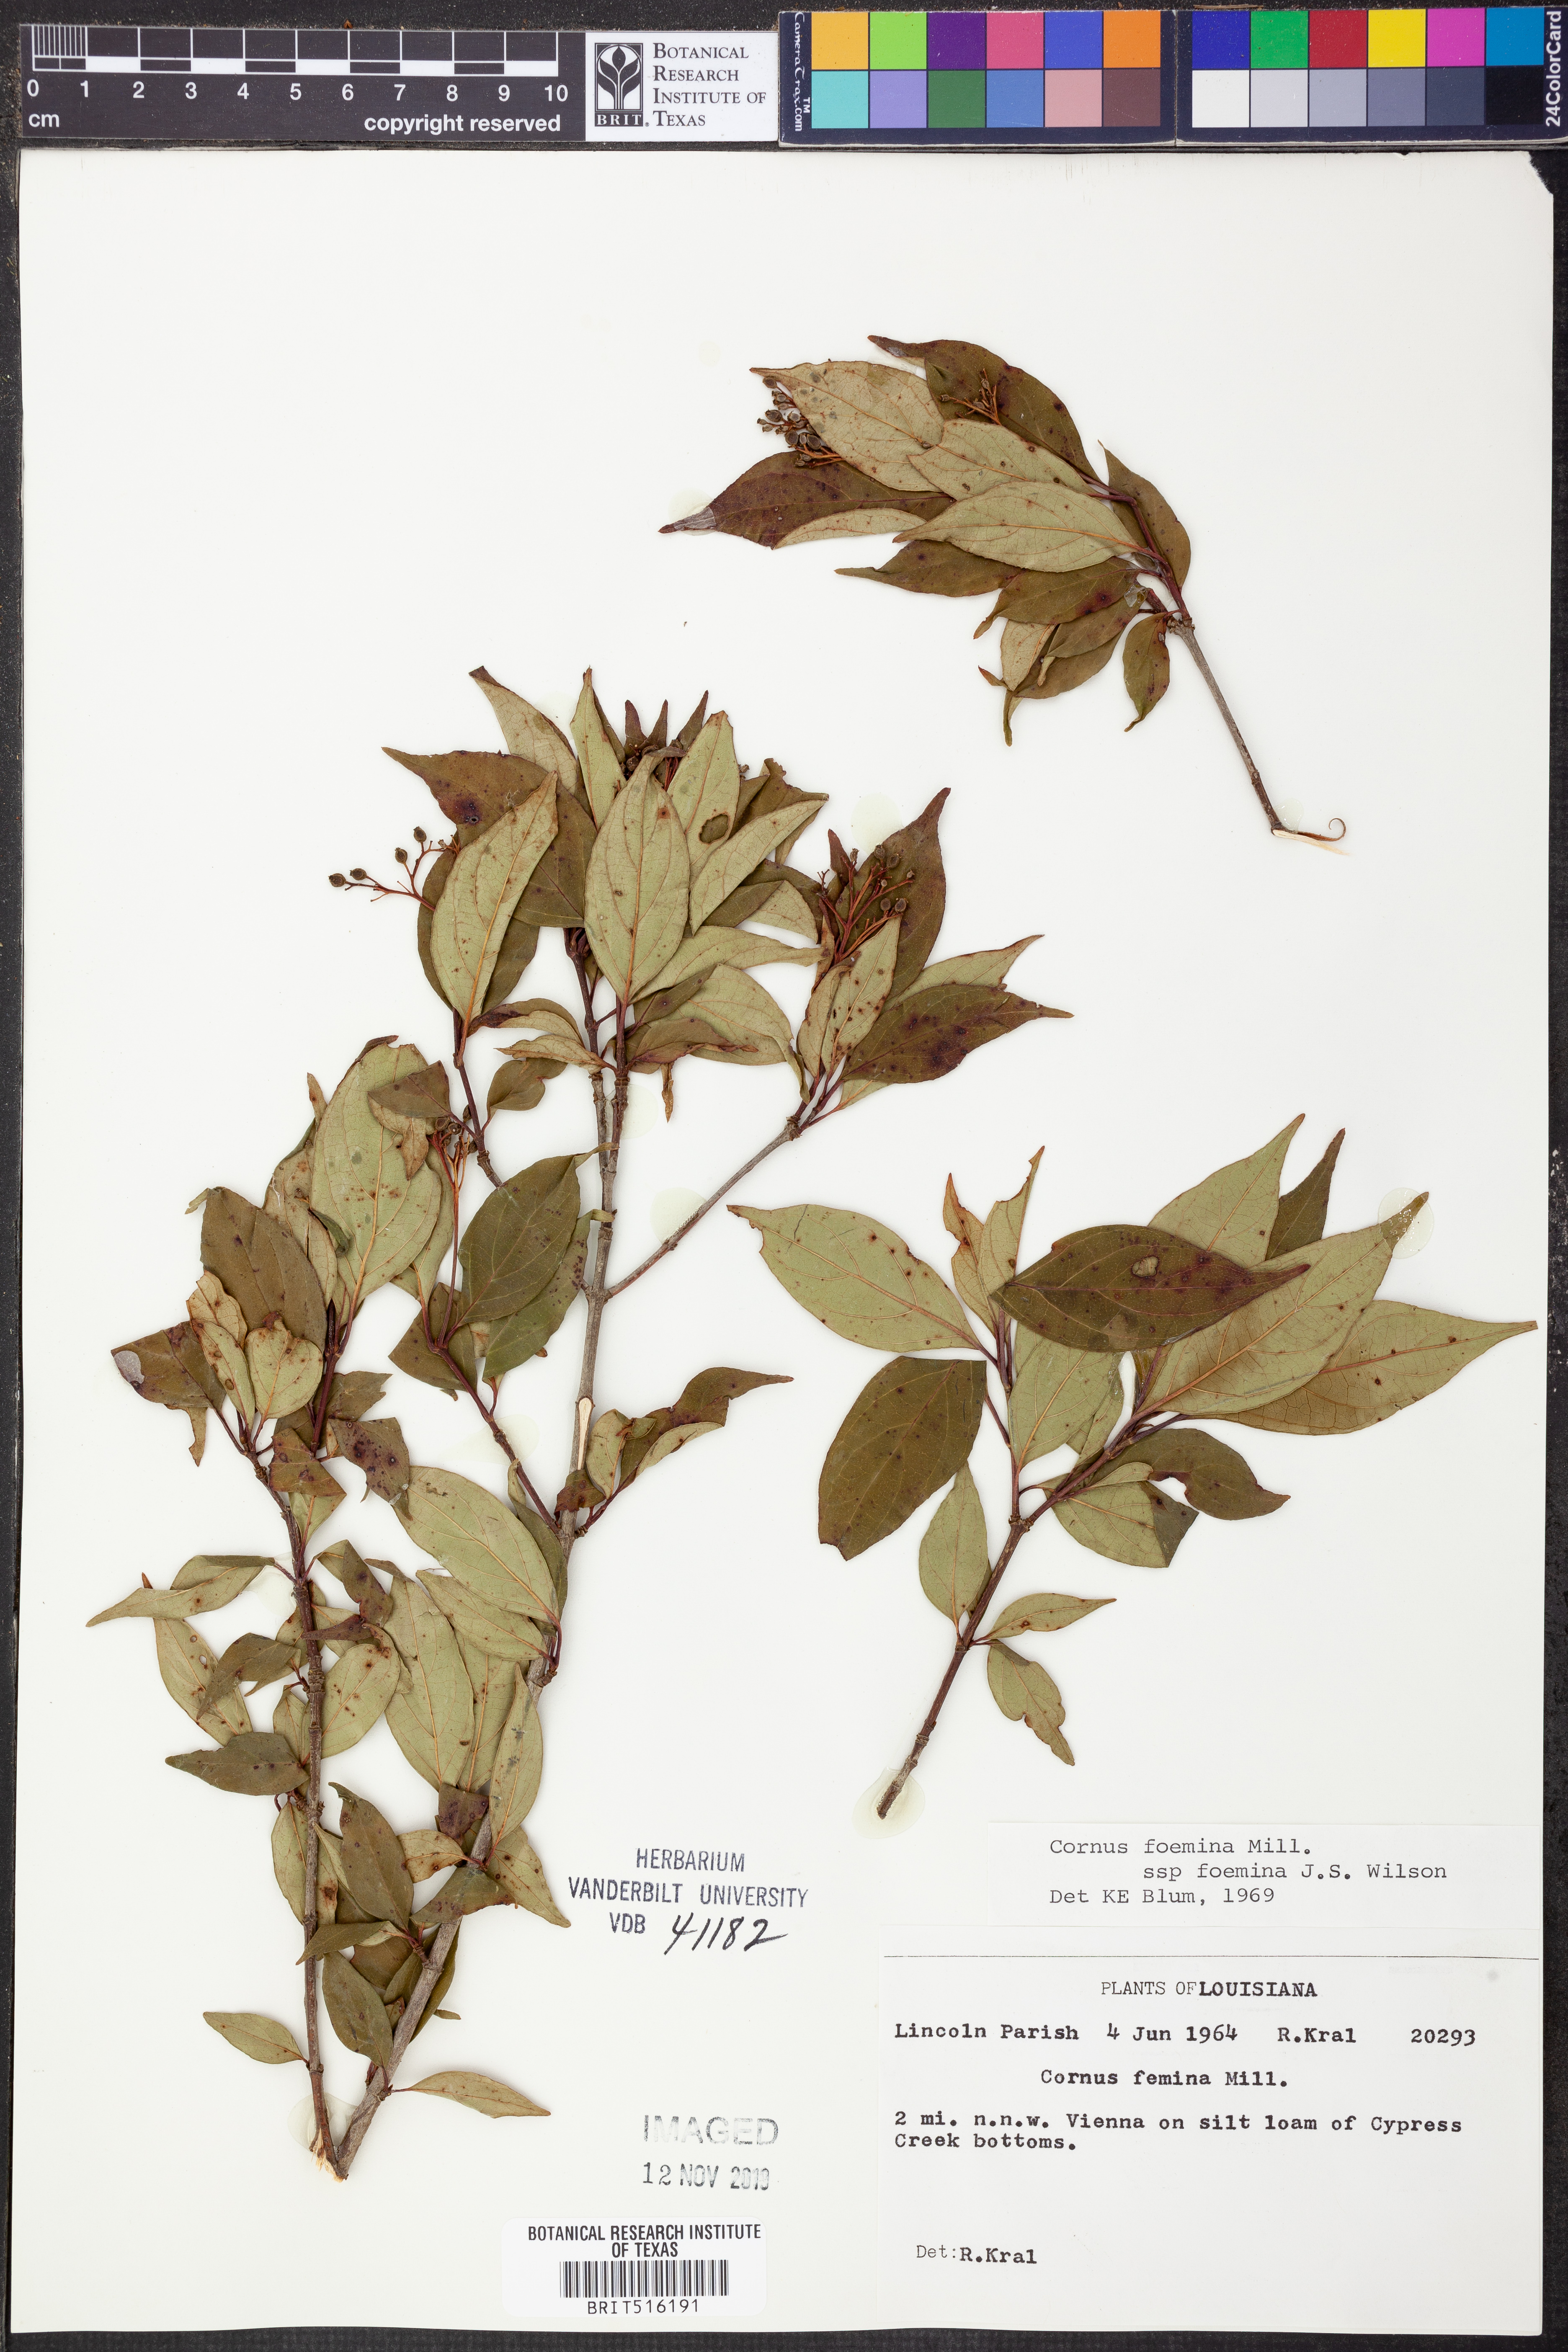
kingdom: Plantae
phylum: Tracheophyta
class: Magnoliopsida
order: Cornales
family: Cornaceae
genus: Cornus
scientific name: Cornus foemina
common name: Swamp dogwood
